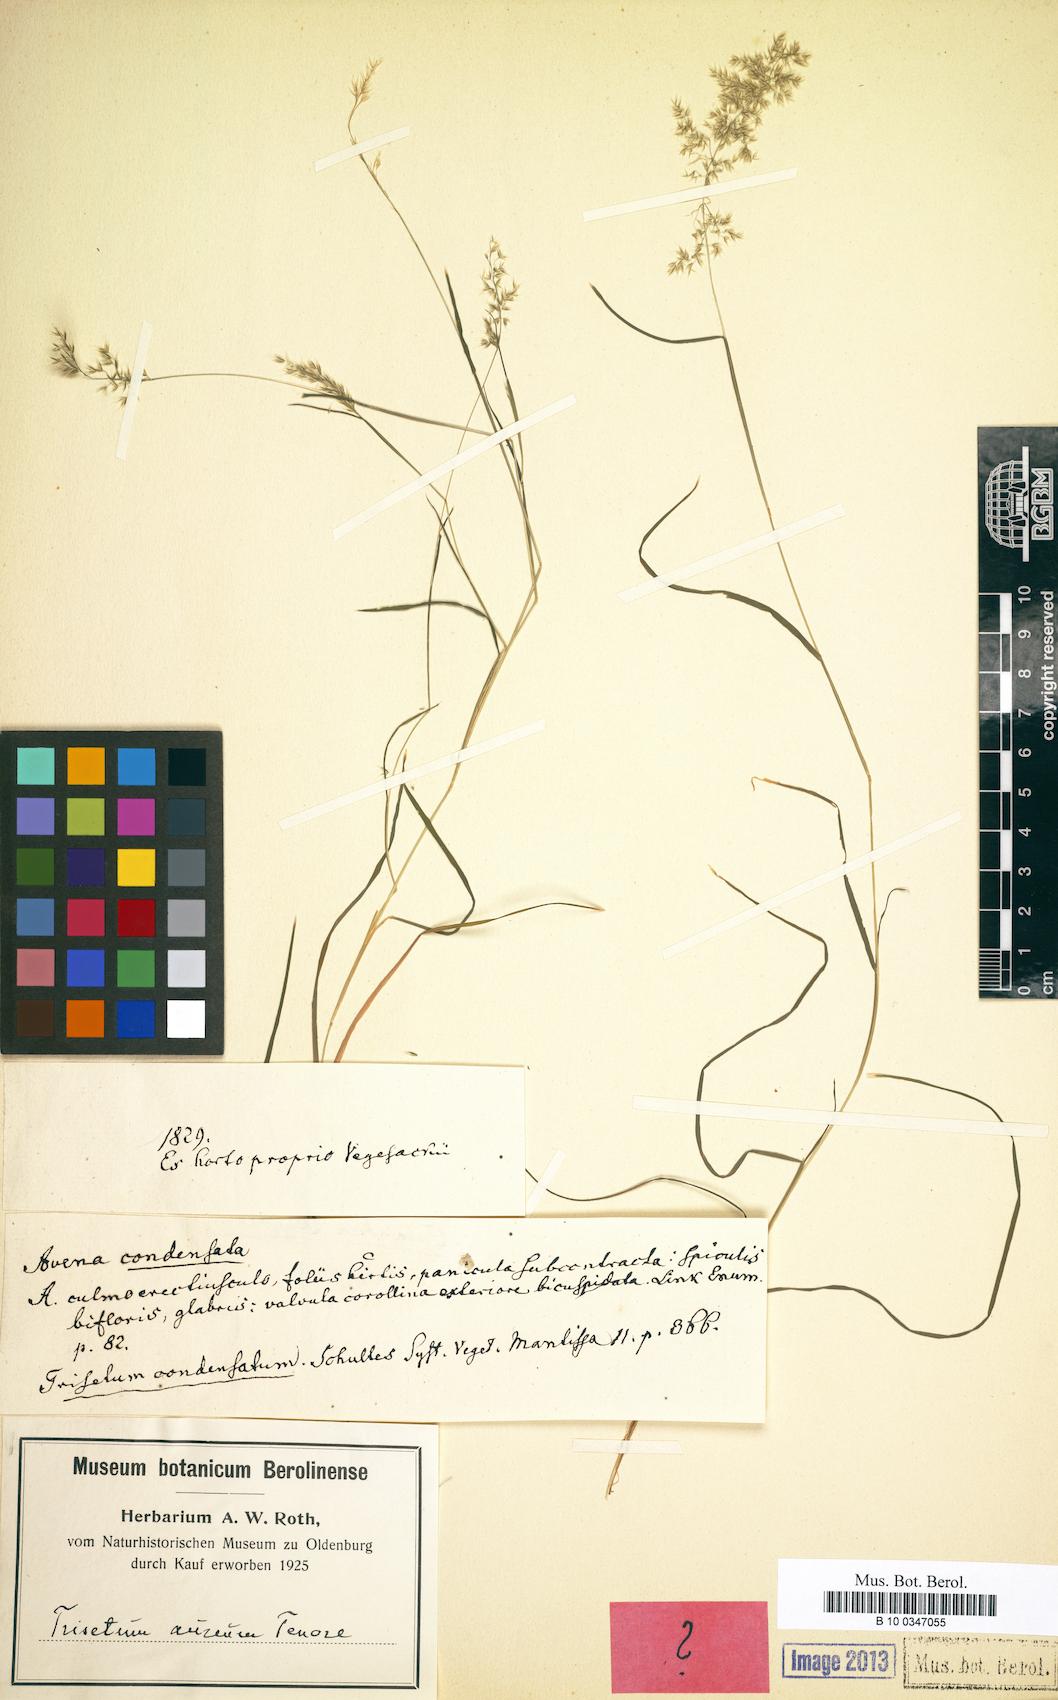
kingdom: Plantae
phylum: Tracheophyta
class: Liliopsida
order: Poales
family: Poaceae
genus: Trisetaria
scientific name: Trisetaria aurea
